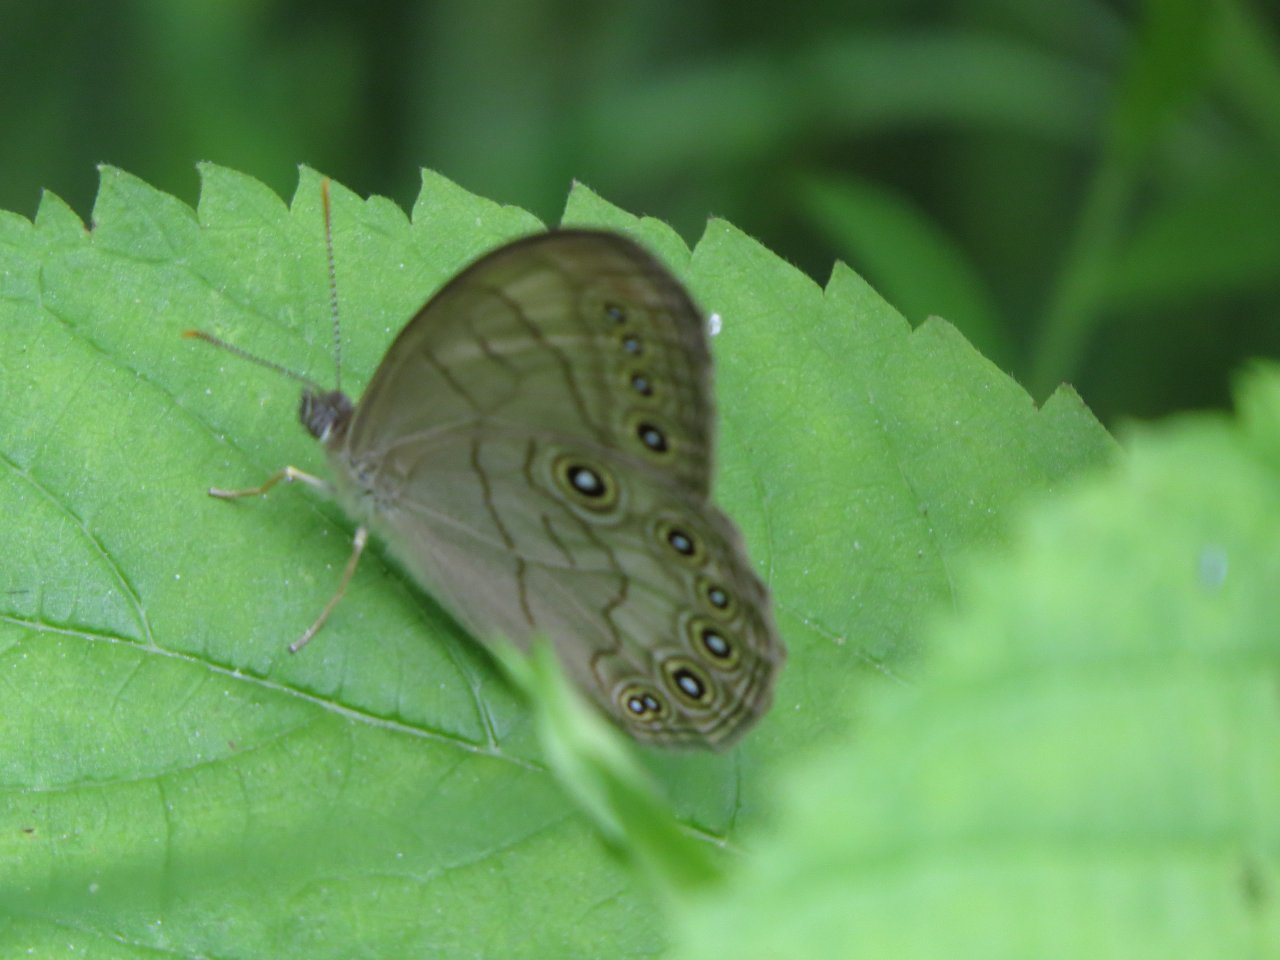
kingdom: Animalia
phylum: Arthropoda
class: Insecta
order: Lepidoptera
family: Nymphalidae
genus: Lethe
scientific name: Lethe eurydice
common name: Appalachian Eyed Brown
